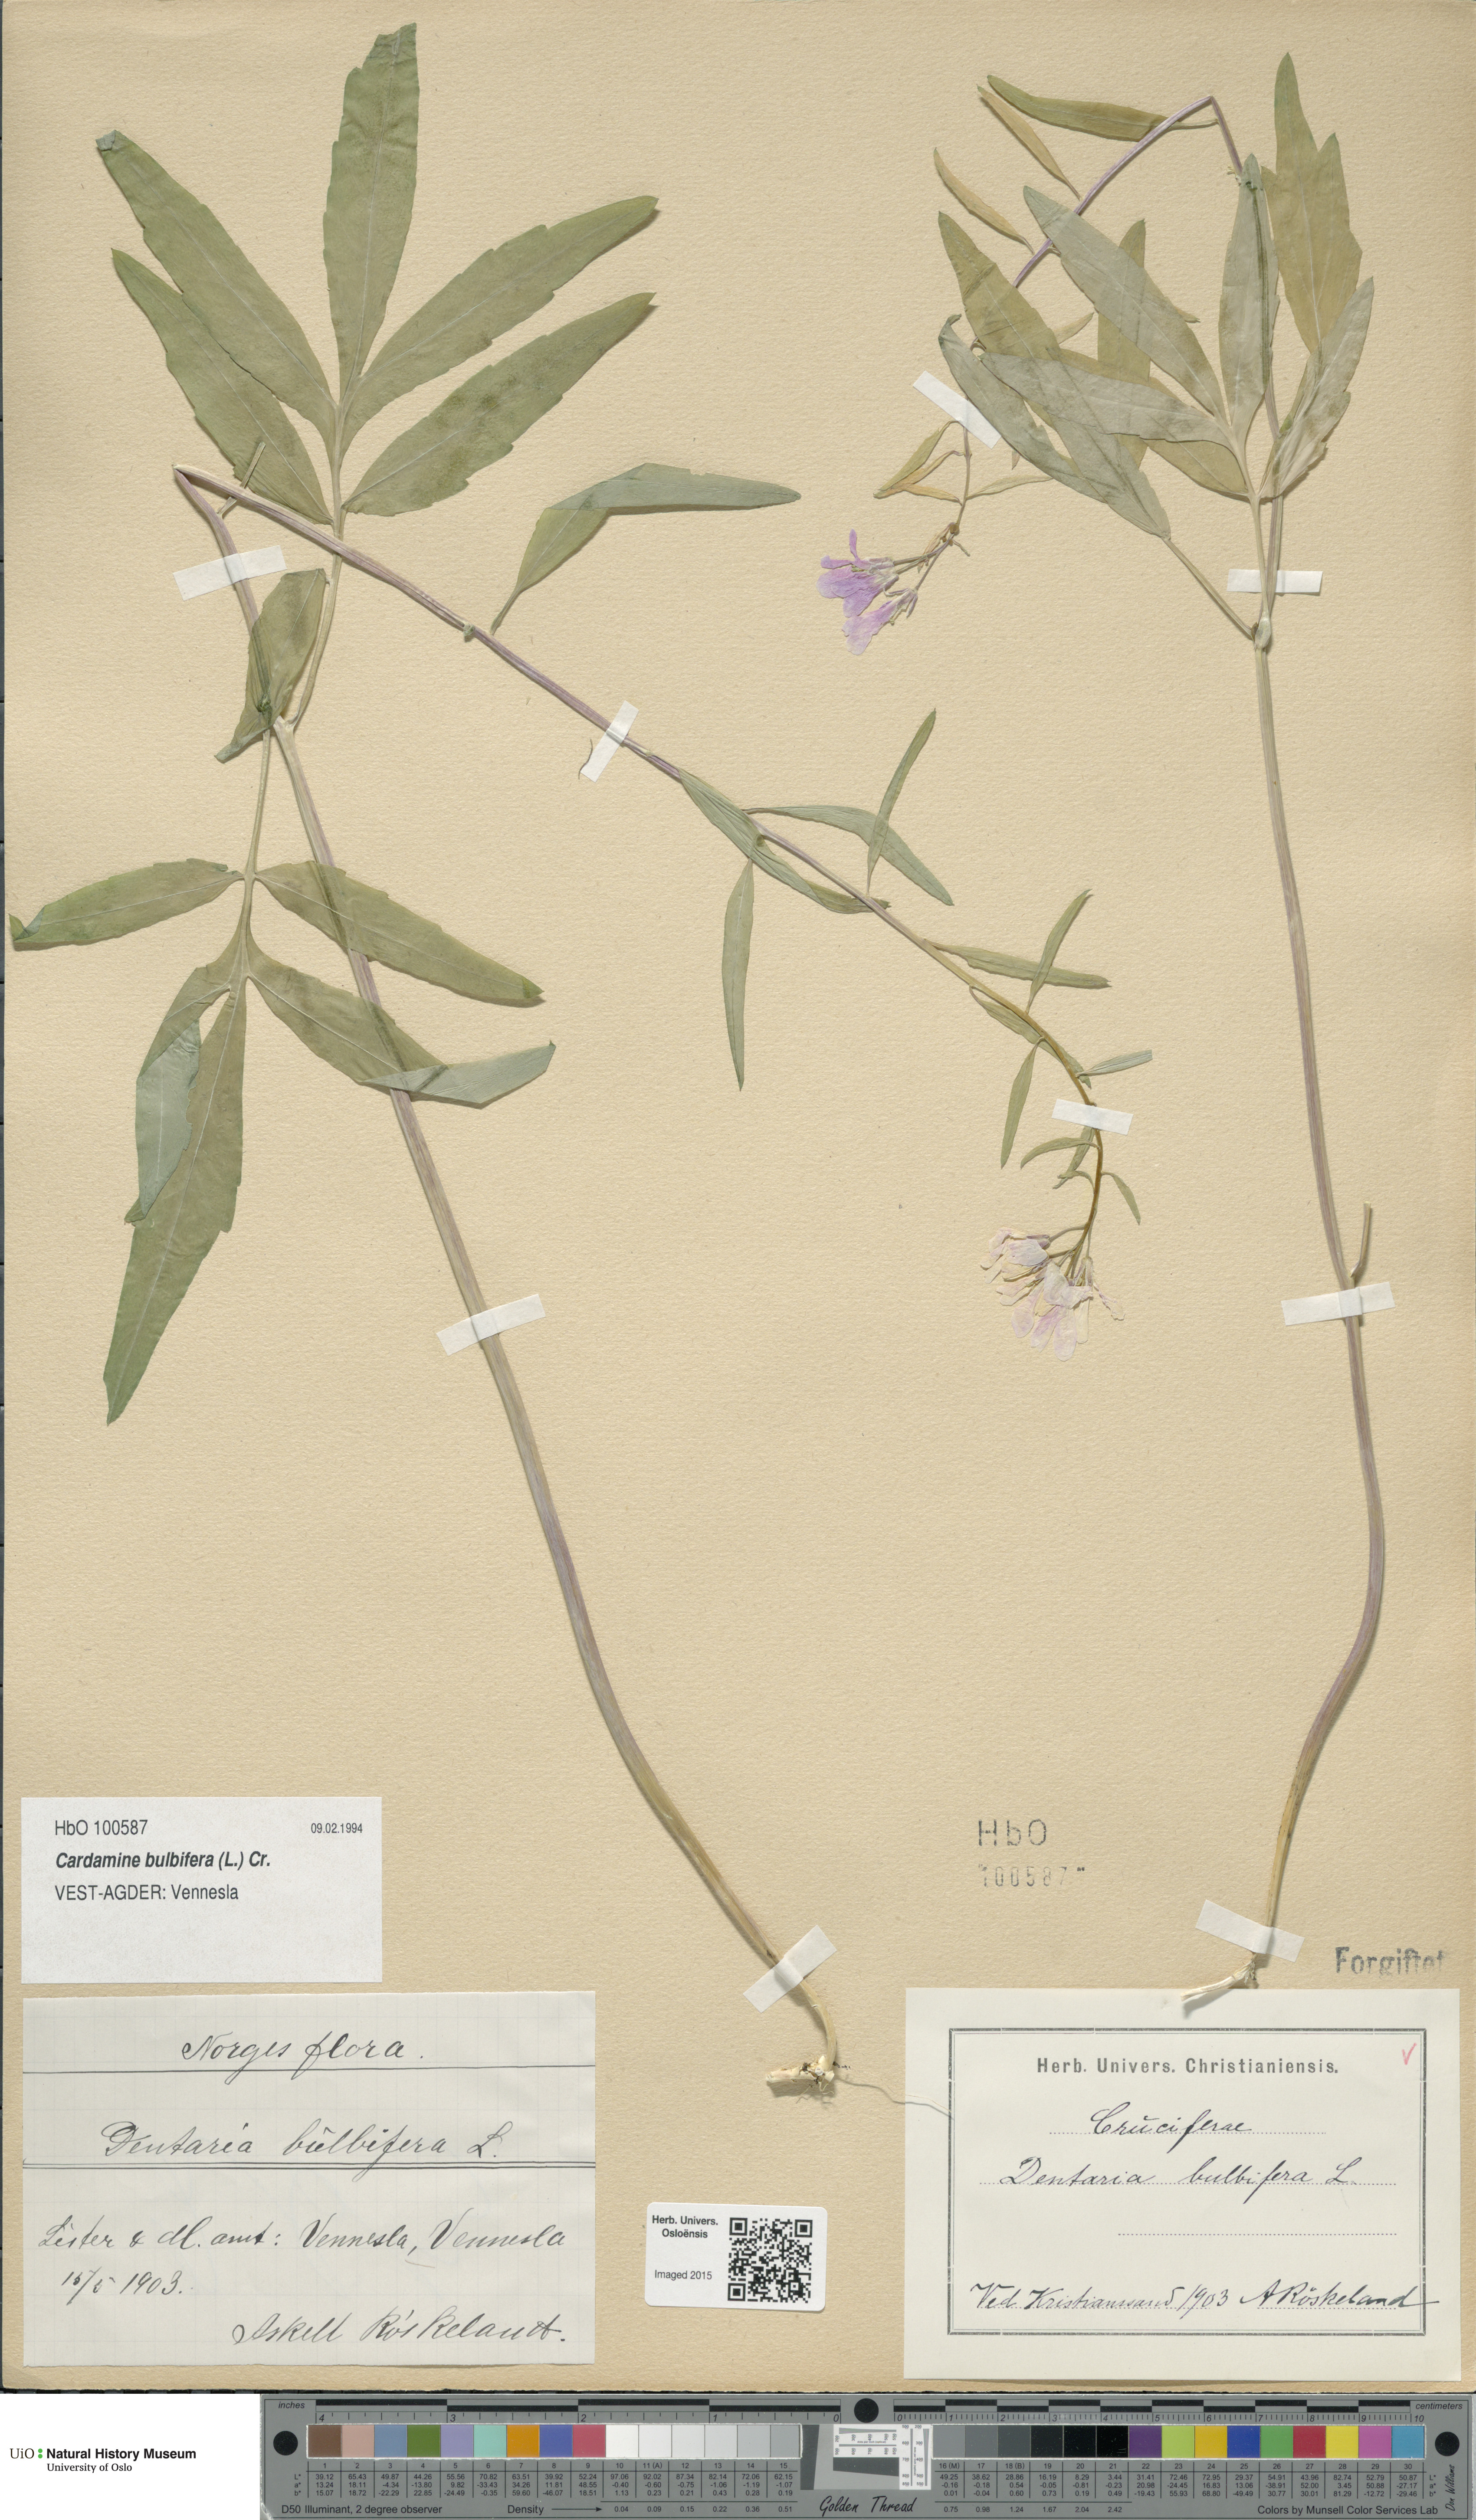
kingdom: Plantae
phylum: Tracheophyta
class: Magnoliopsida
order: Brassicales
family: Brassicaceae
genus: Cardamine
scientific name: Cardamine bulbifera
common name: Coralroot bittercress
